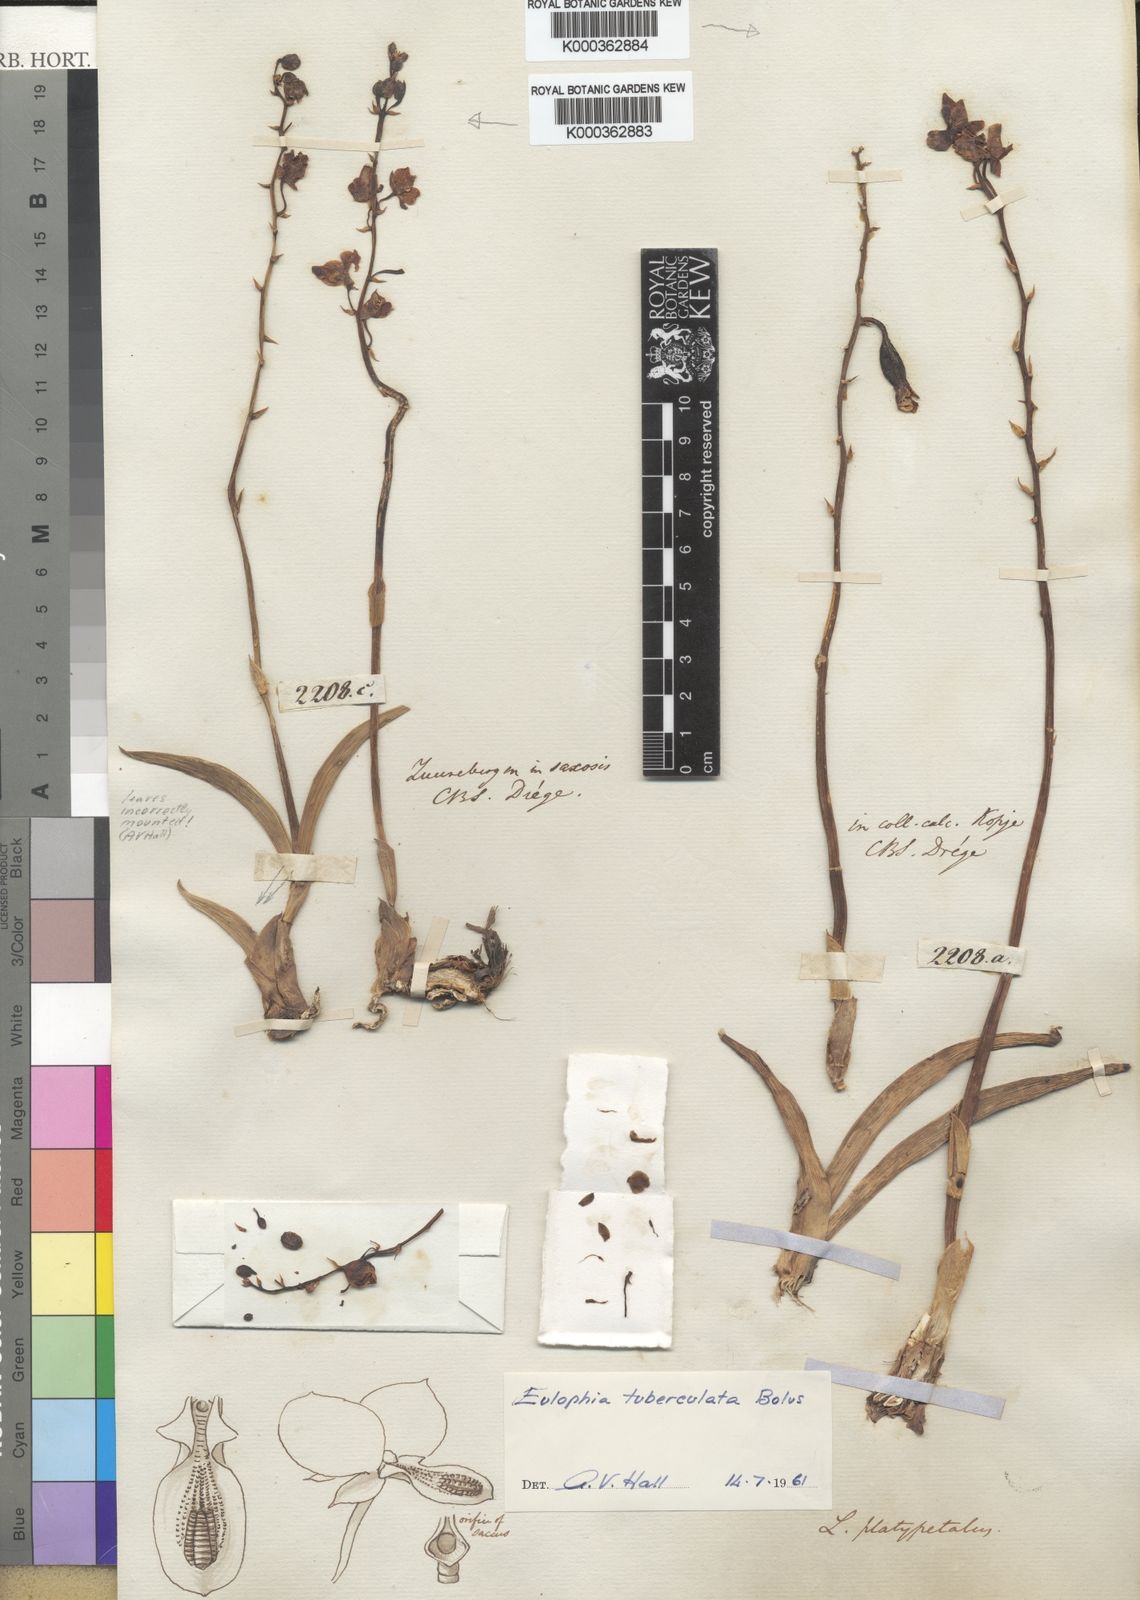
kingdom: Plantae
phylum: Tracheophyta
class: Liliopsida
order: Asparagales
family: Orchidaceae
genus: Eulophia
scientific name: Eulophia tuberculata
